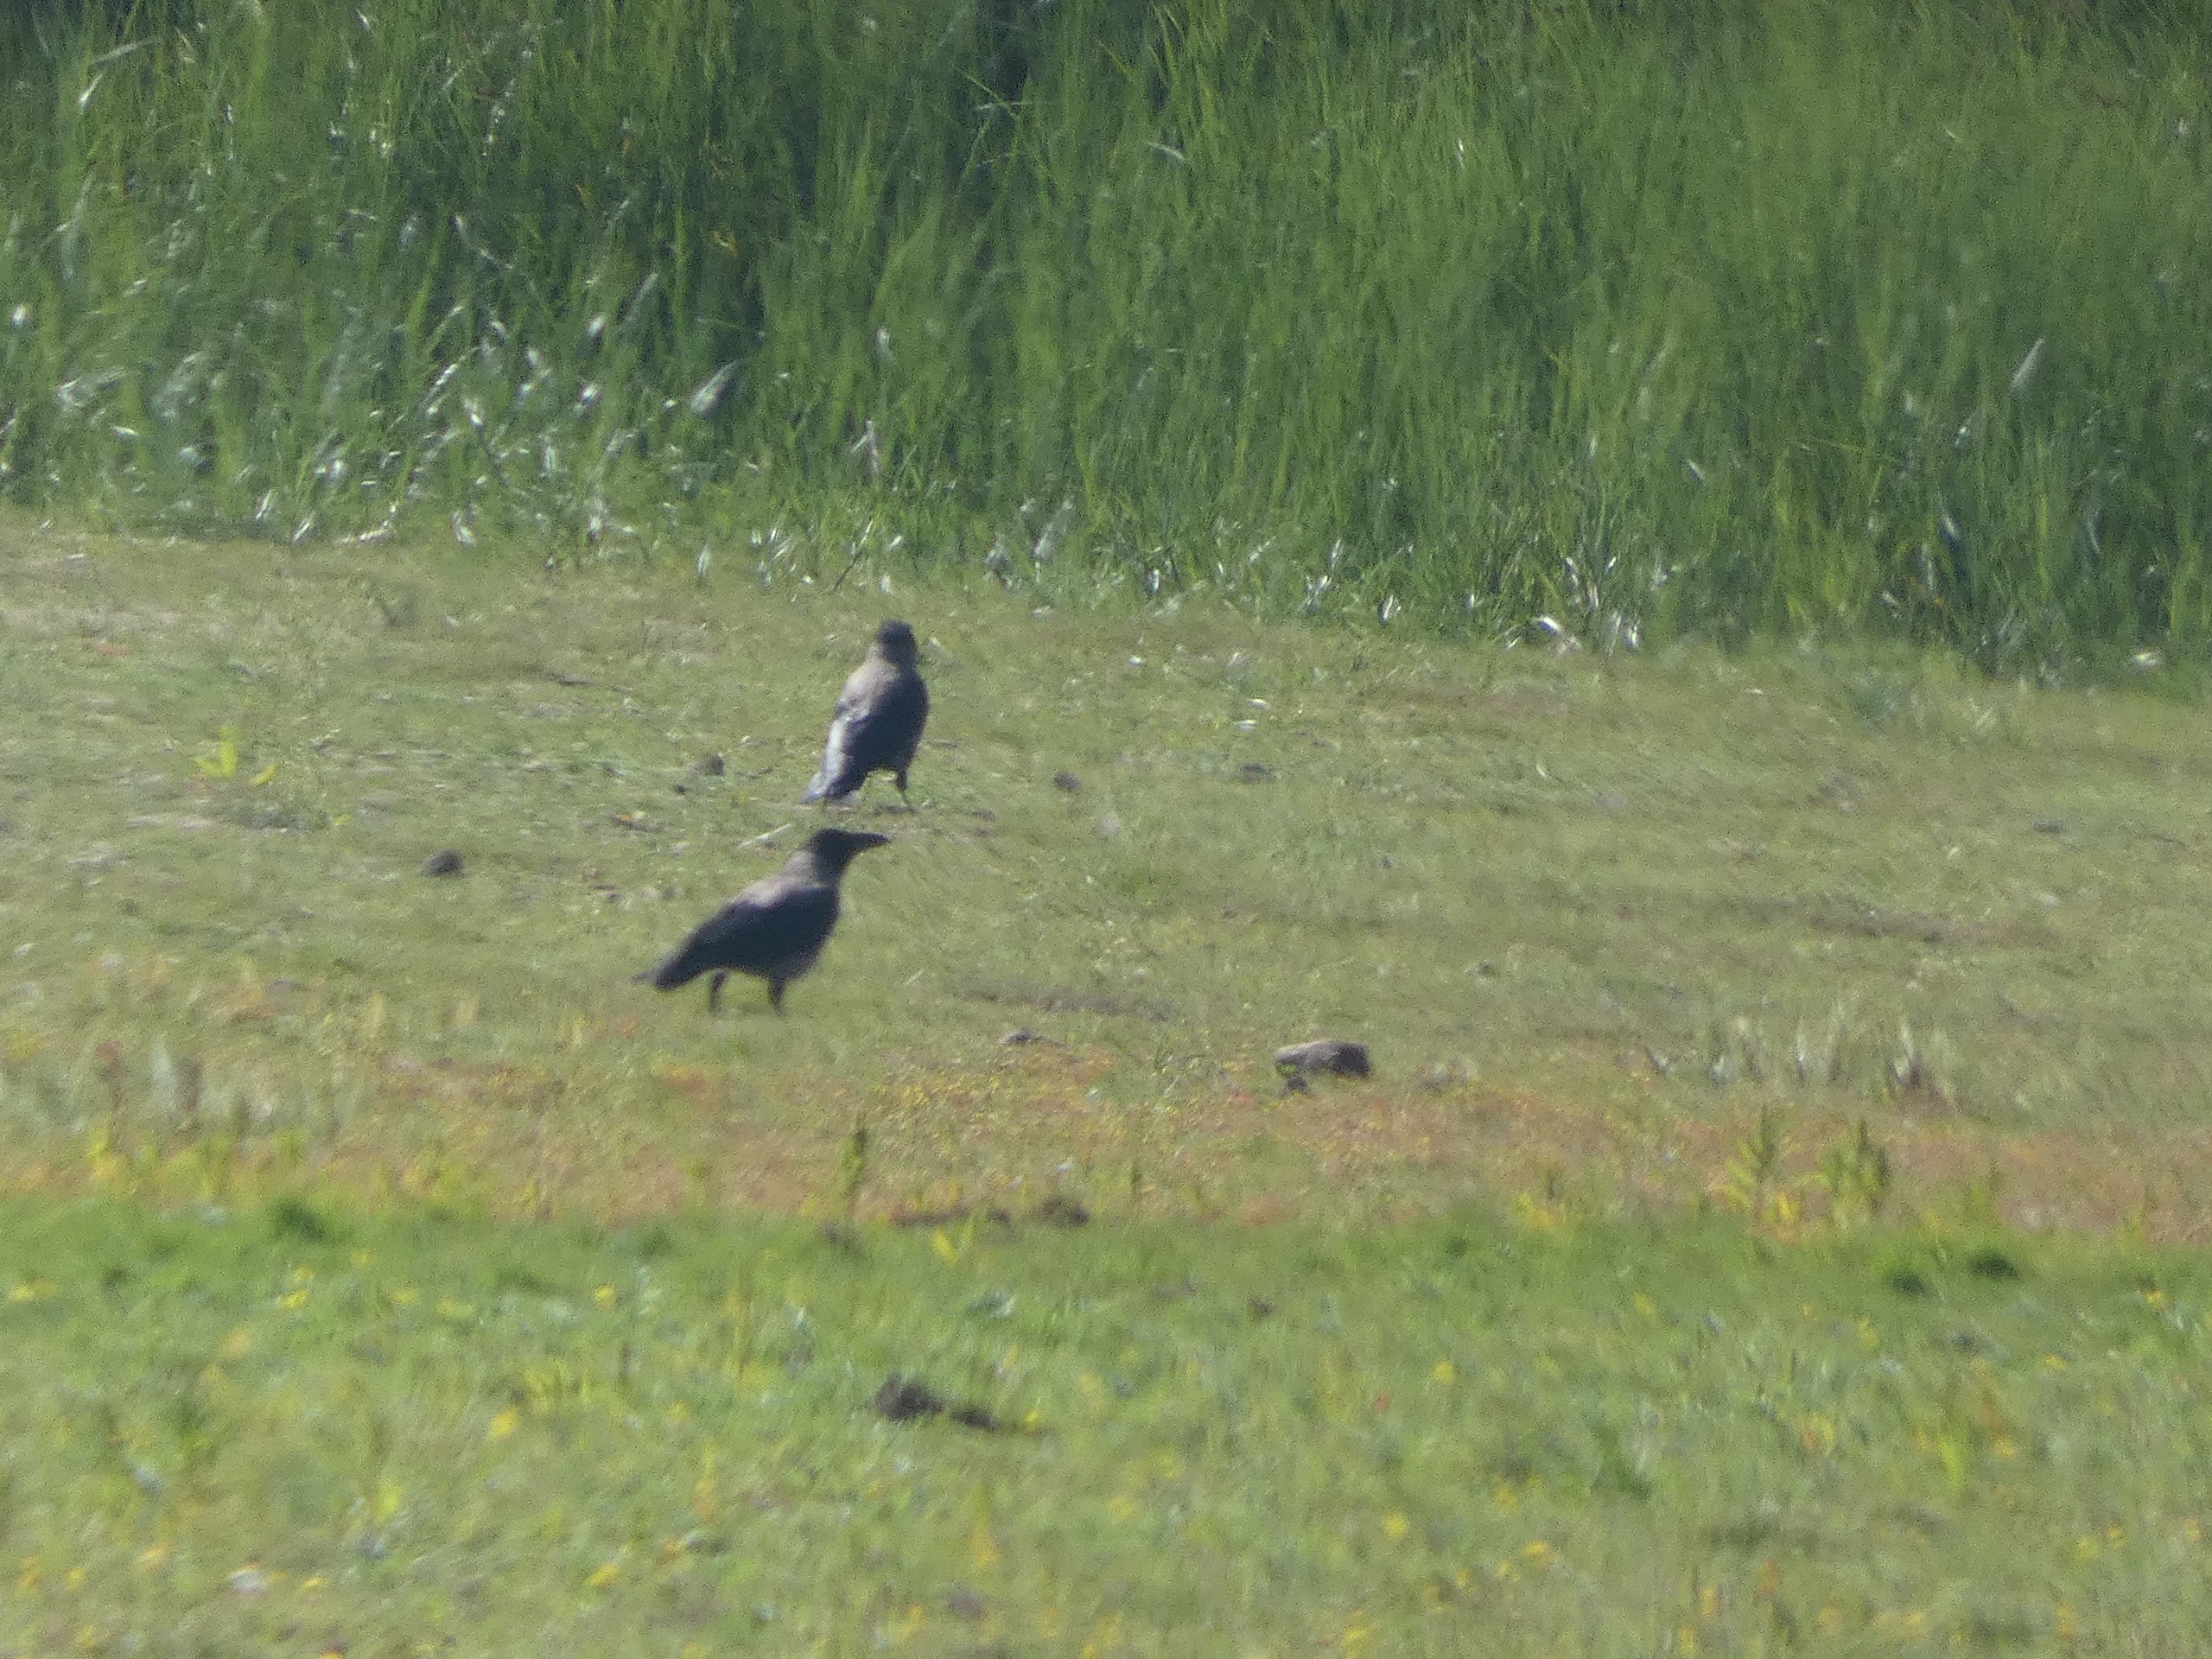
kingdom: Animalia
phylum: Chordata
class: Aves
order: Passeriformes
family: Corvidae
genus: Corvus
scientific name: Corvus cornix
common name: Gråkrage
